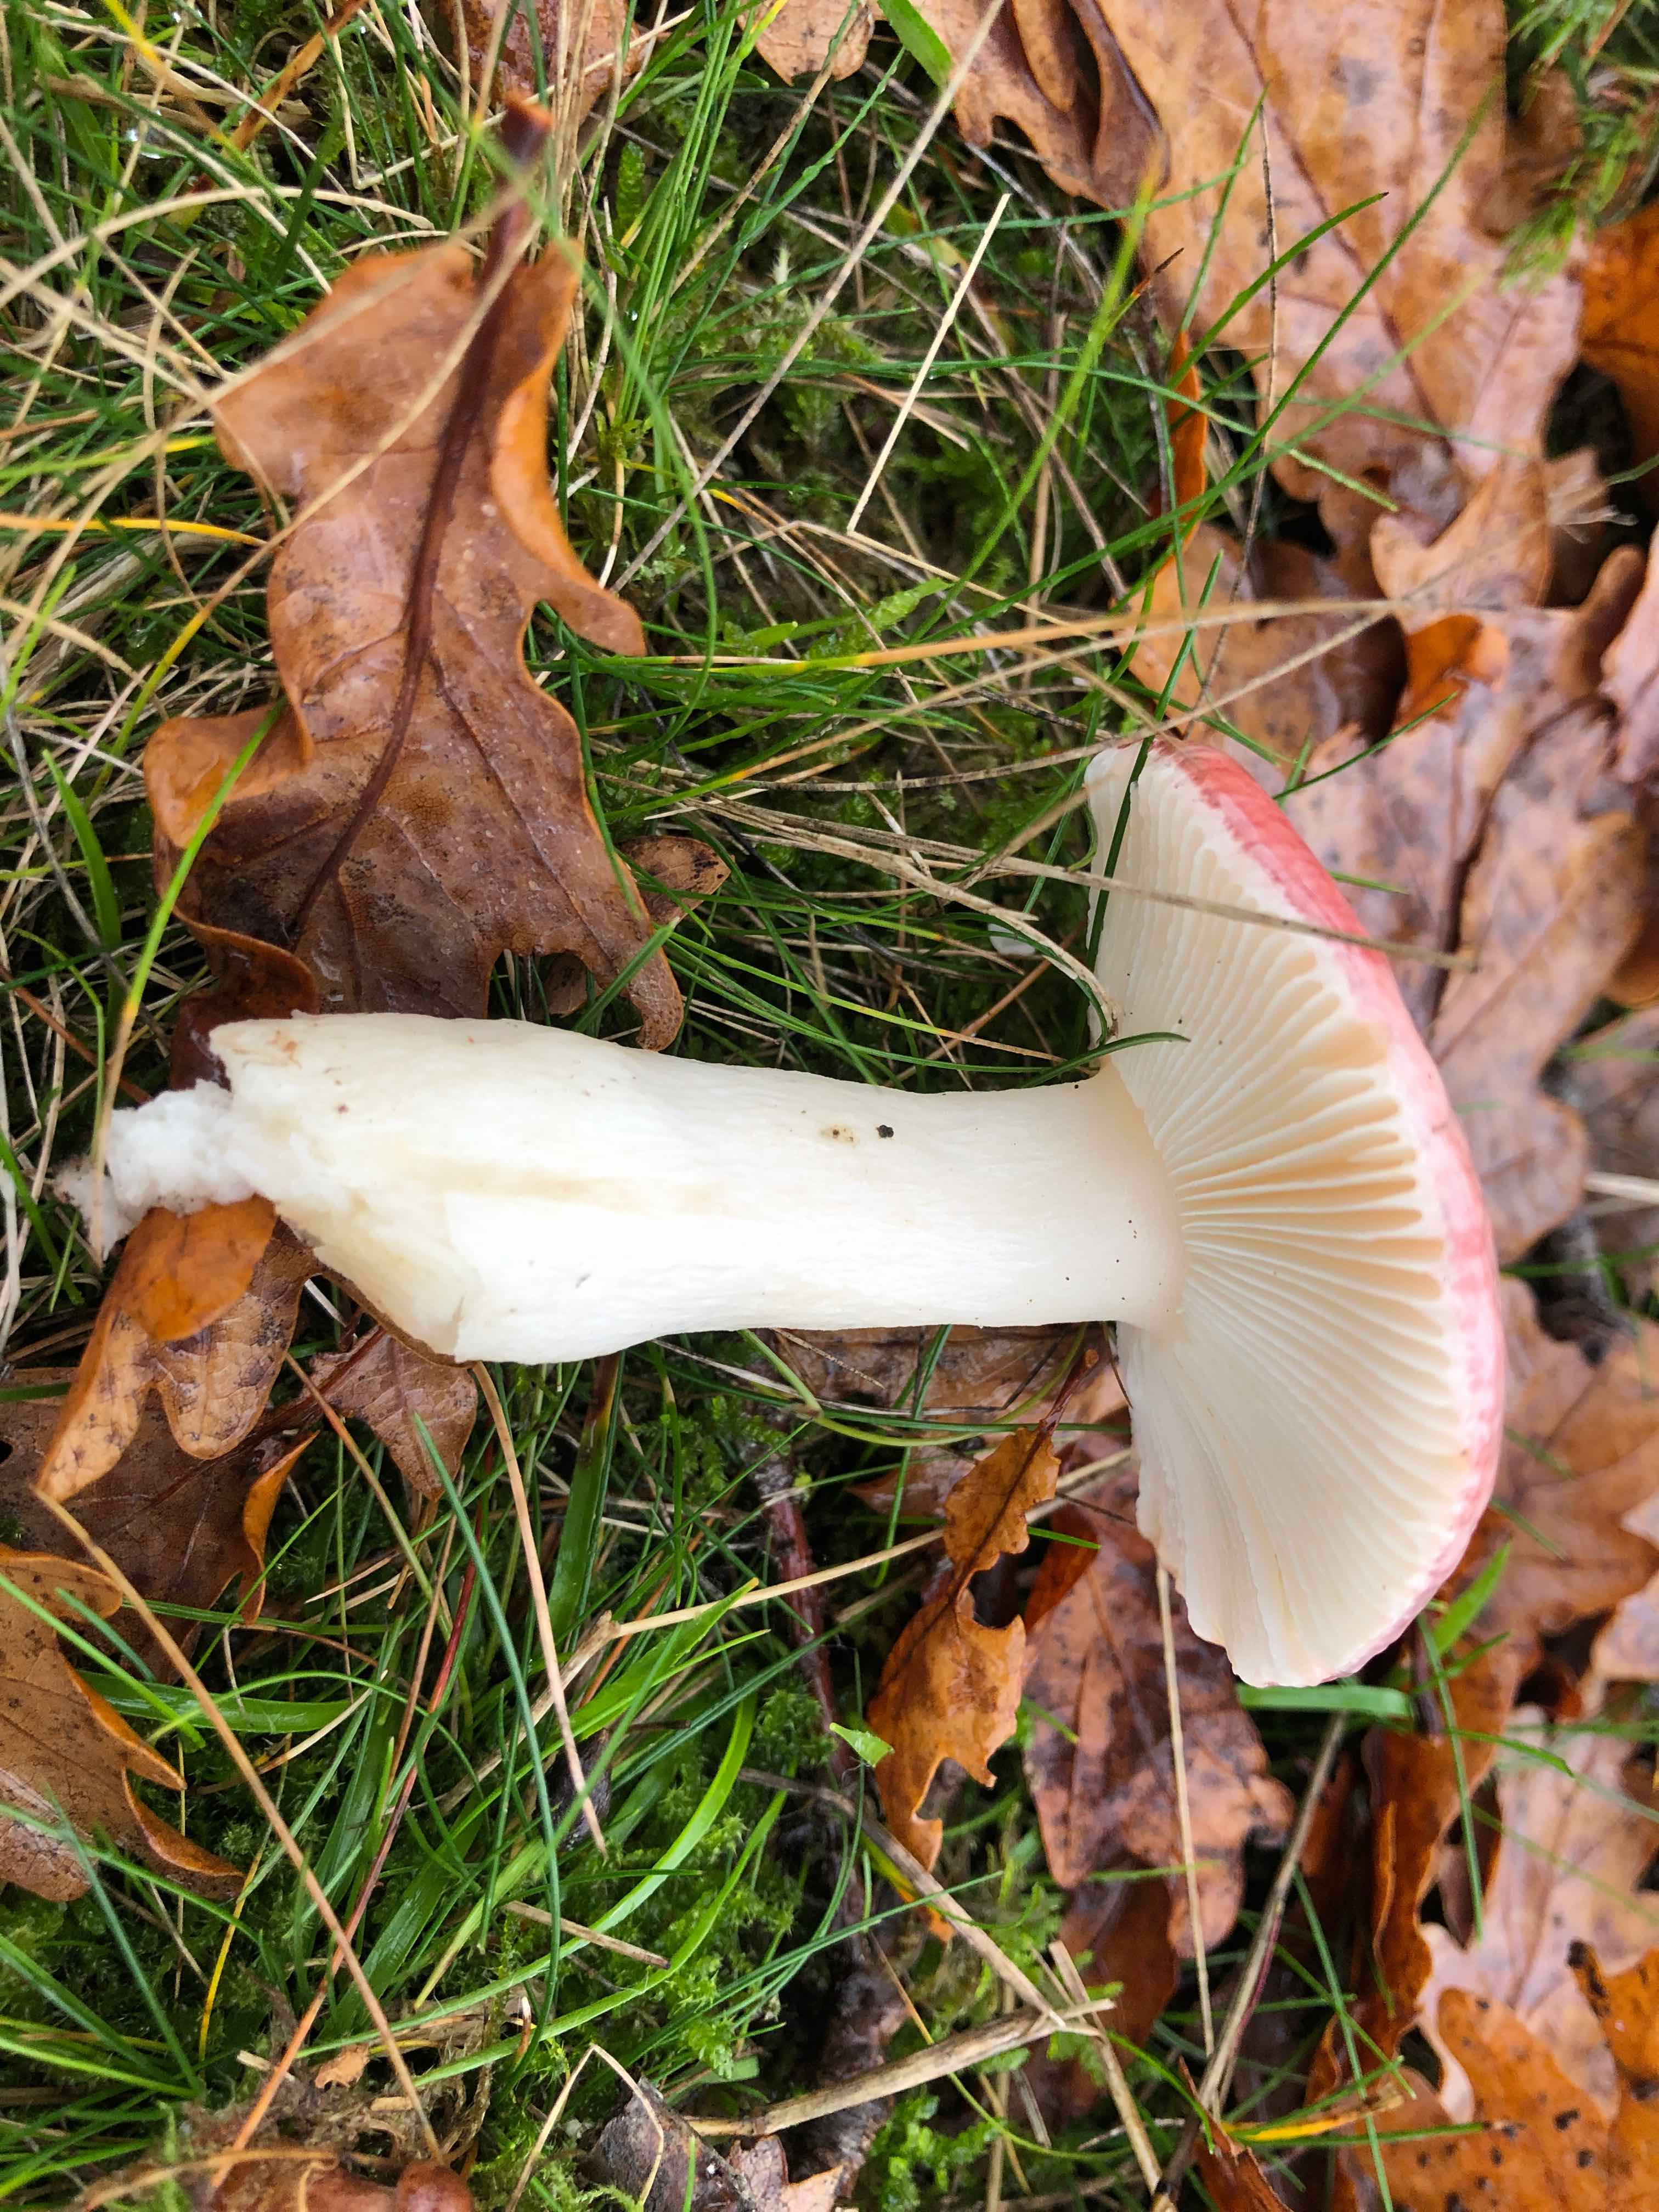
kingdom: Fungi
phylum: Basidiomycota
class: Agaricomycetes
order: Russulales
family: Russulaceae
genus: Russula
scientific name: Russula fragilis
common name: savbladet skørhat
